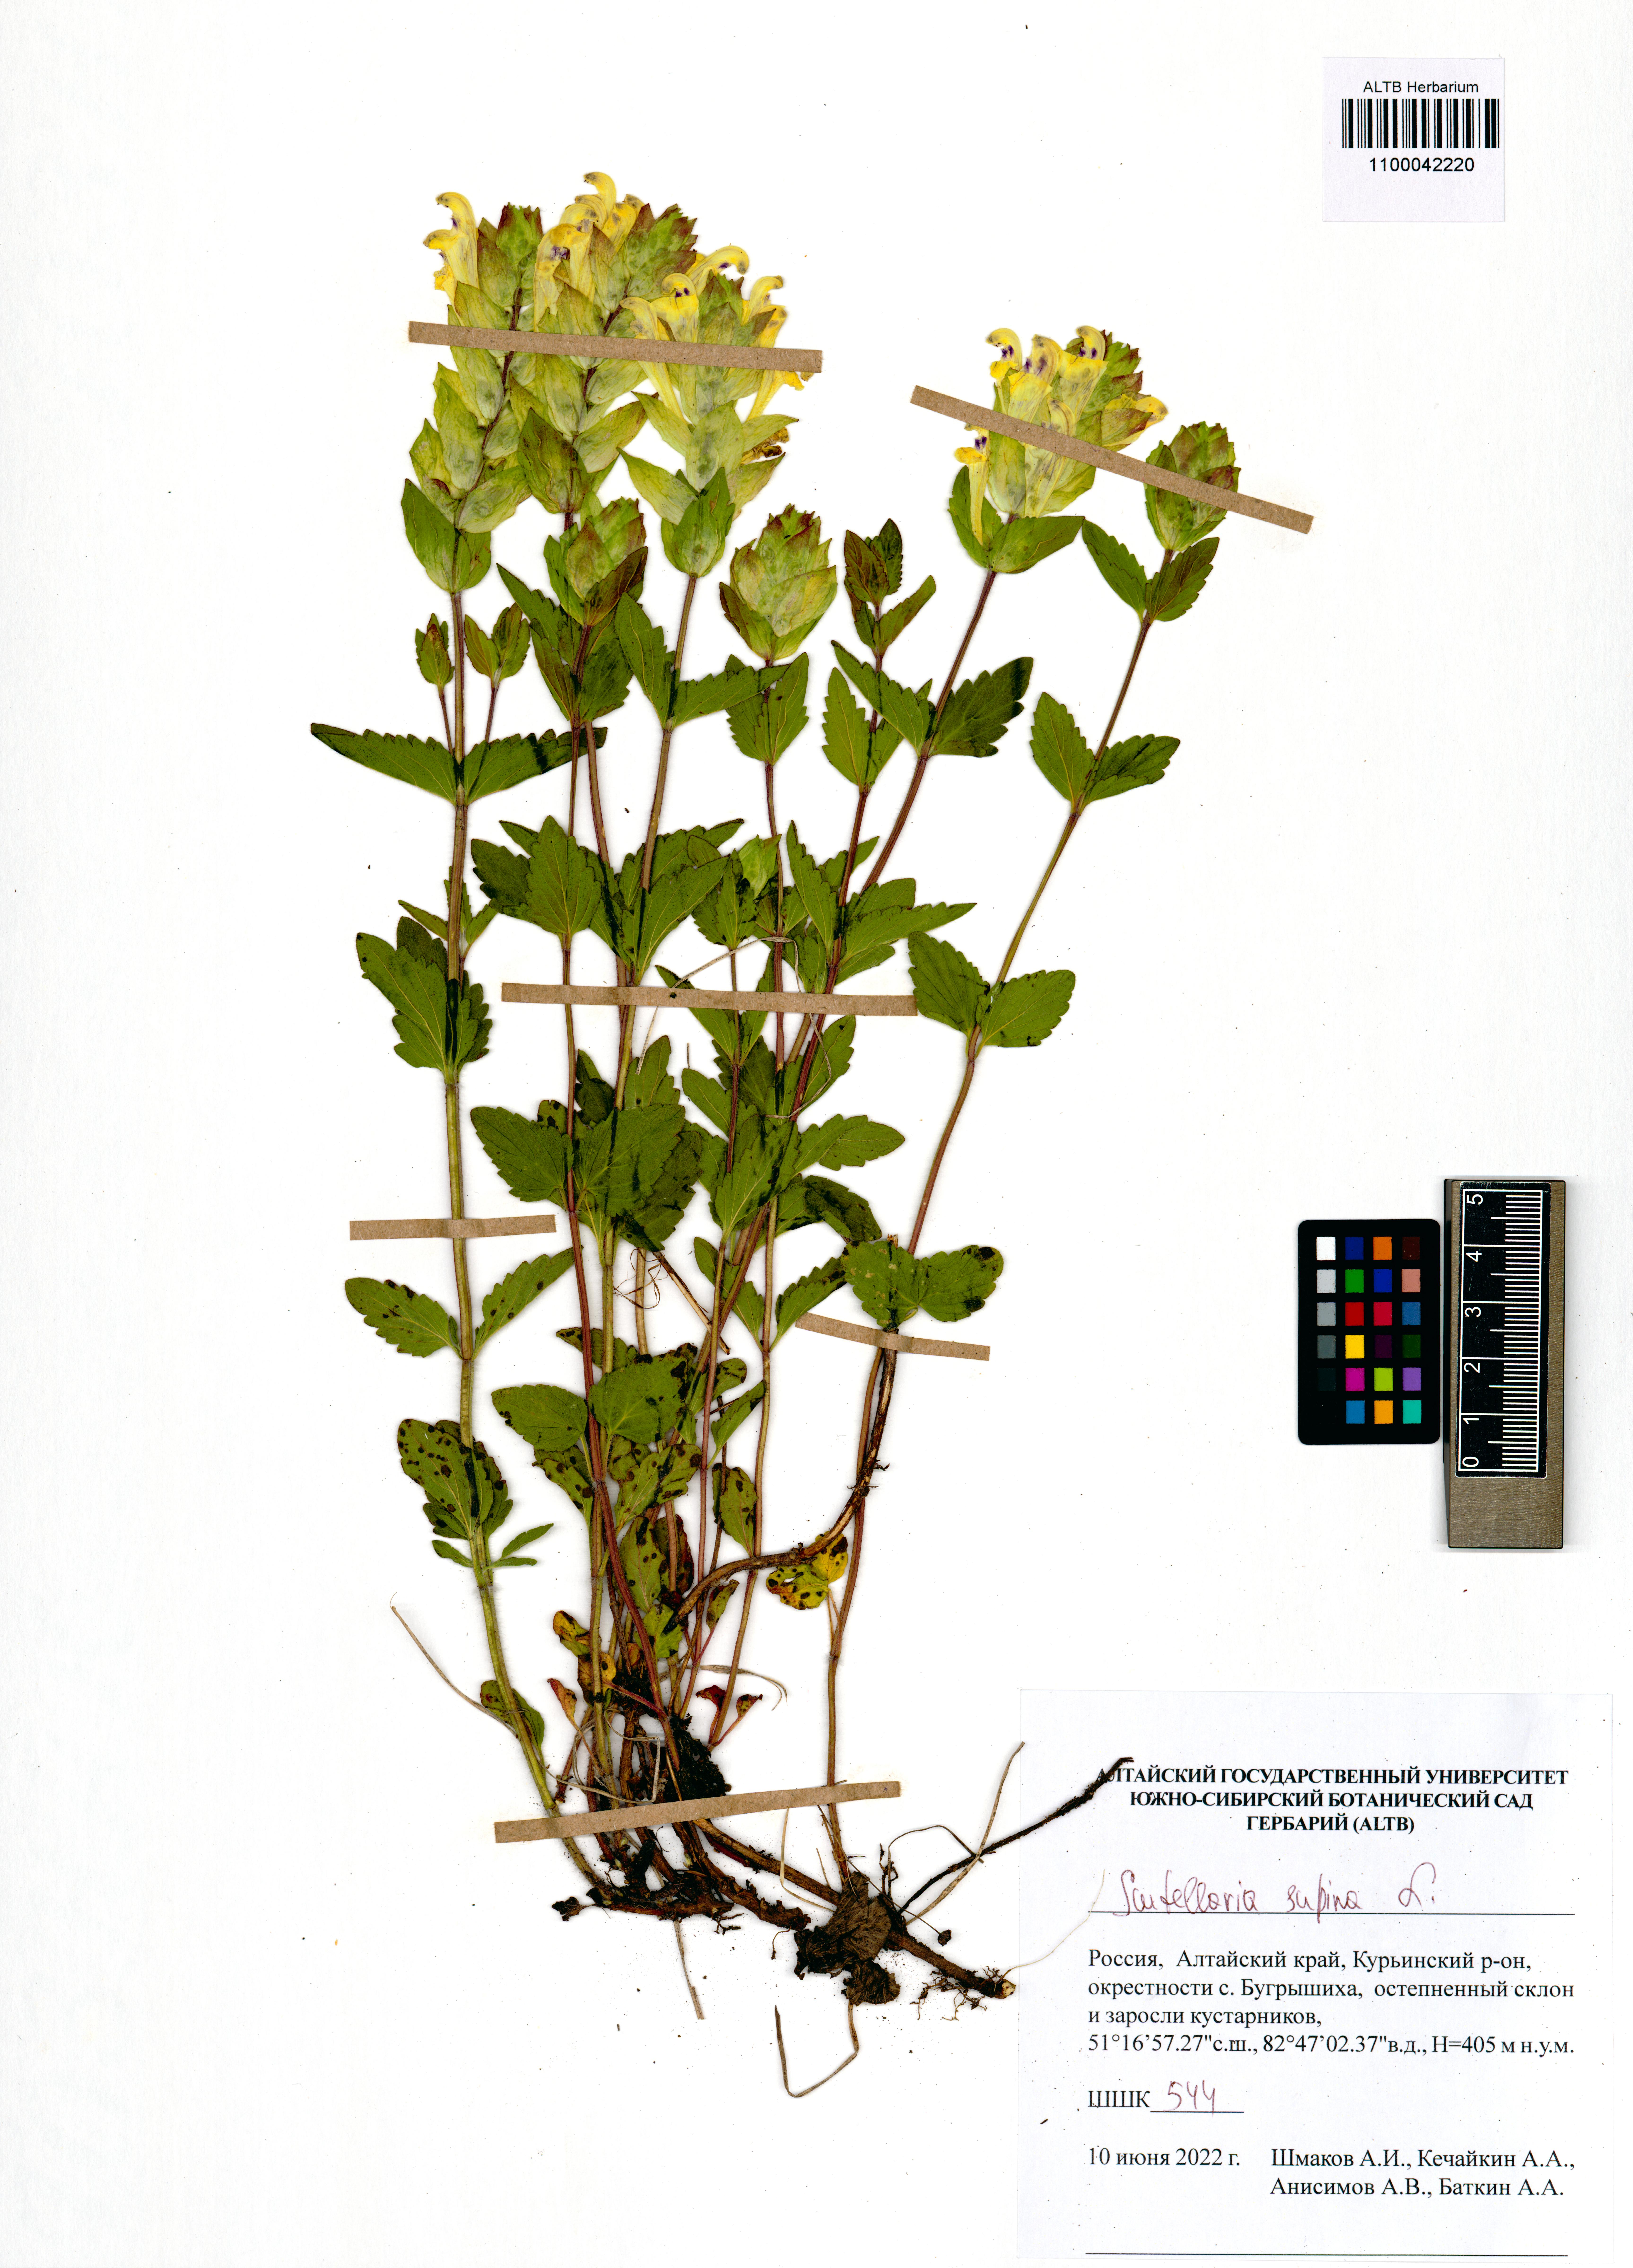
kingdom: Plantae
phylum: Tracheophyta
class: Magnoliopsida
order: Lamiales
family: Lamiaceae
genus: Scutellaria
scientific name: Scutellaria supina
